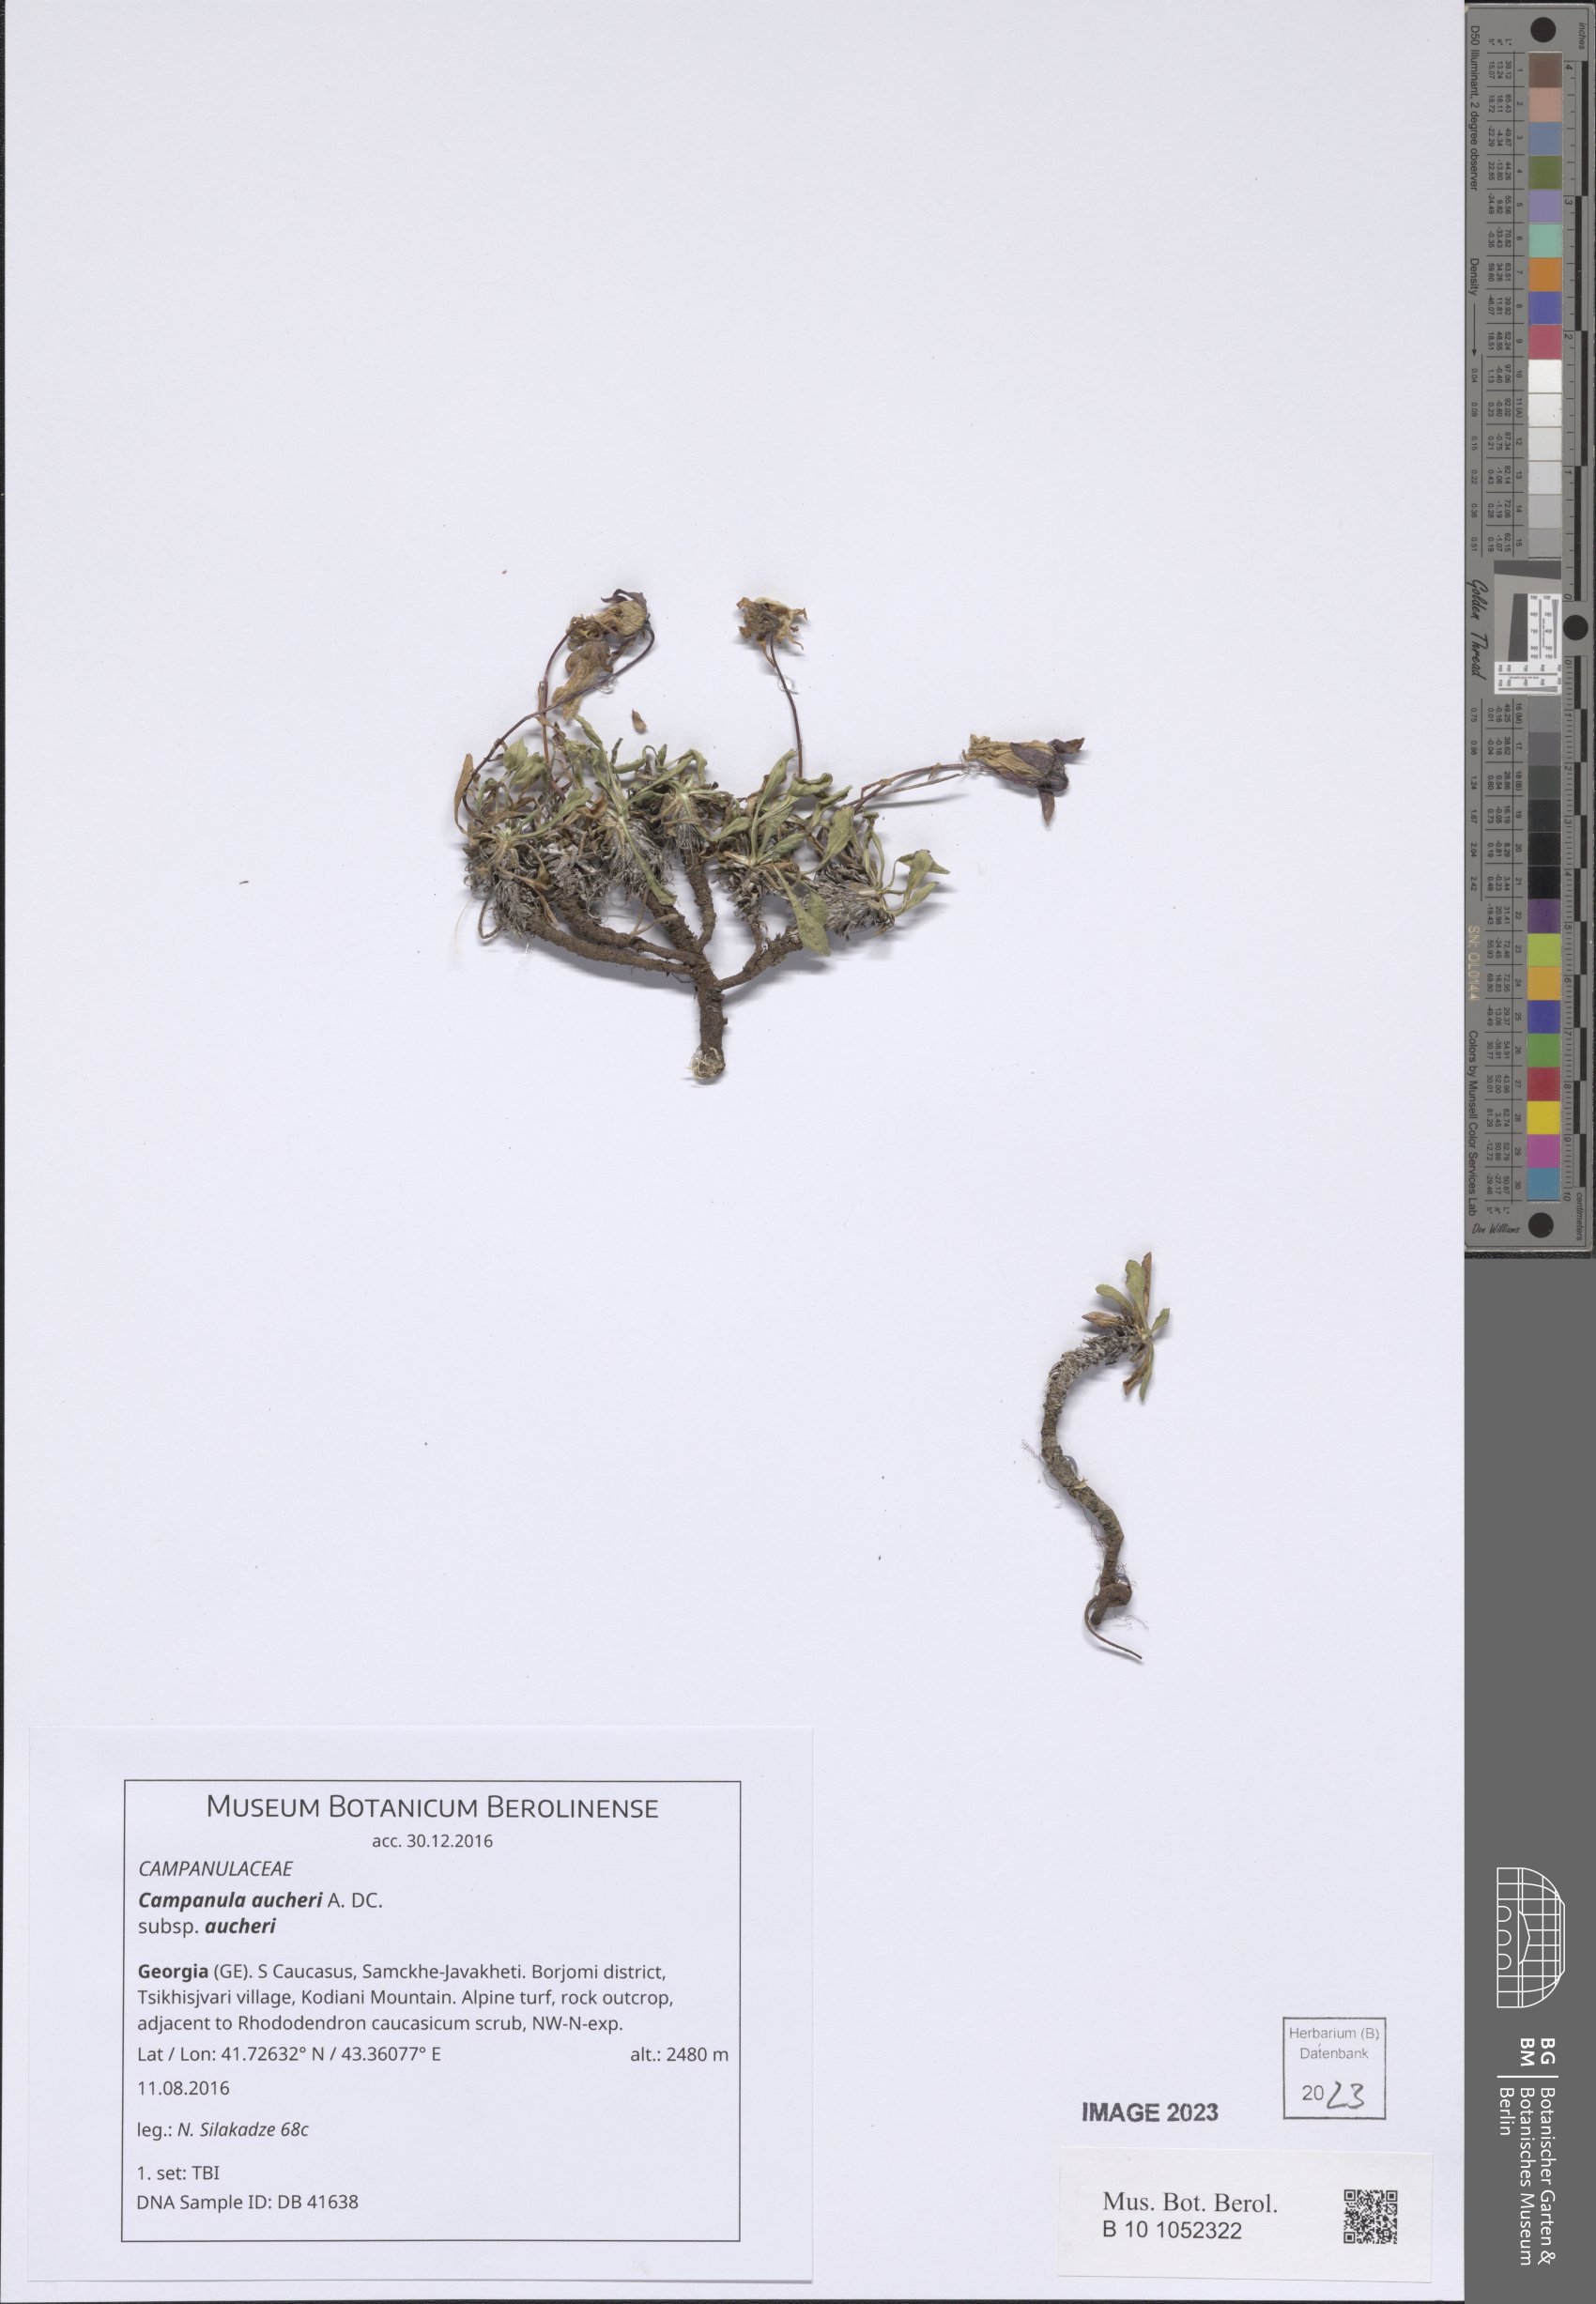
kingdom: Plantae
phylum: Tracheophyta
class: Magnoliopsida
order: Asterales
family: Campanulaceae
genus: Campanula
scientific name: Campanula saxifraga
